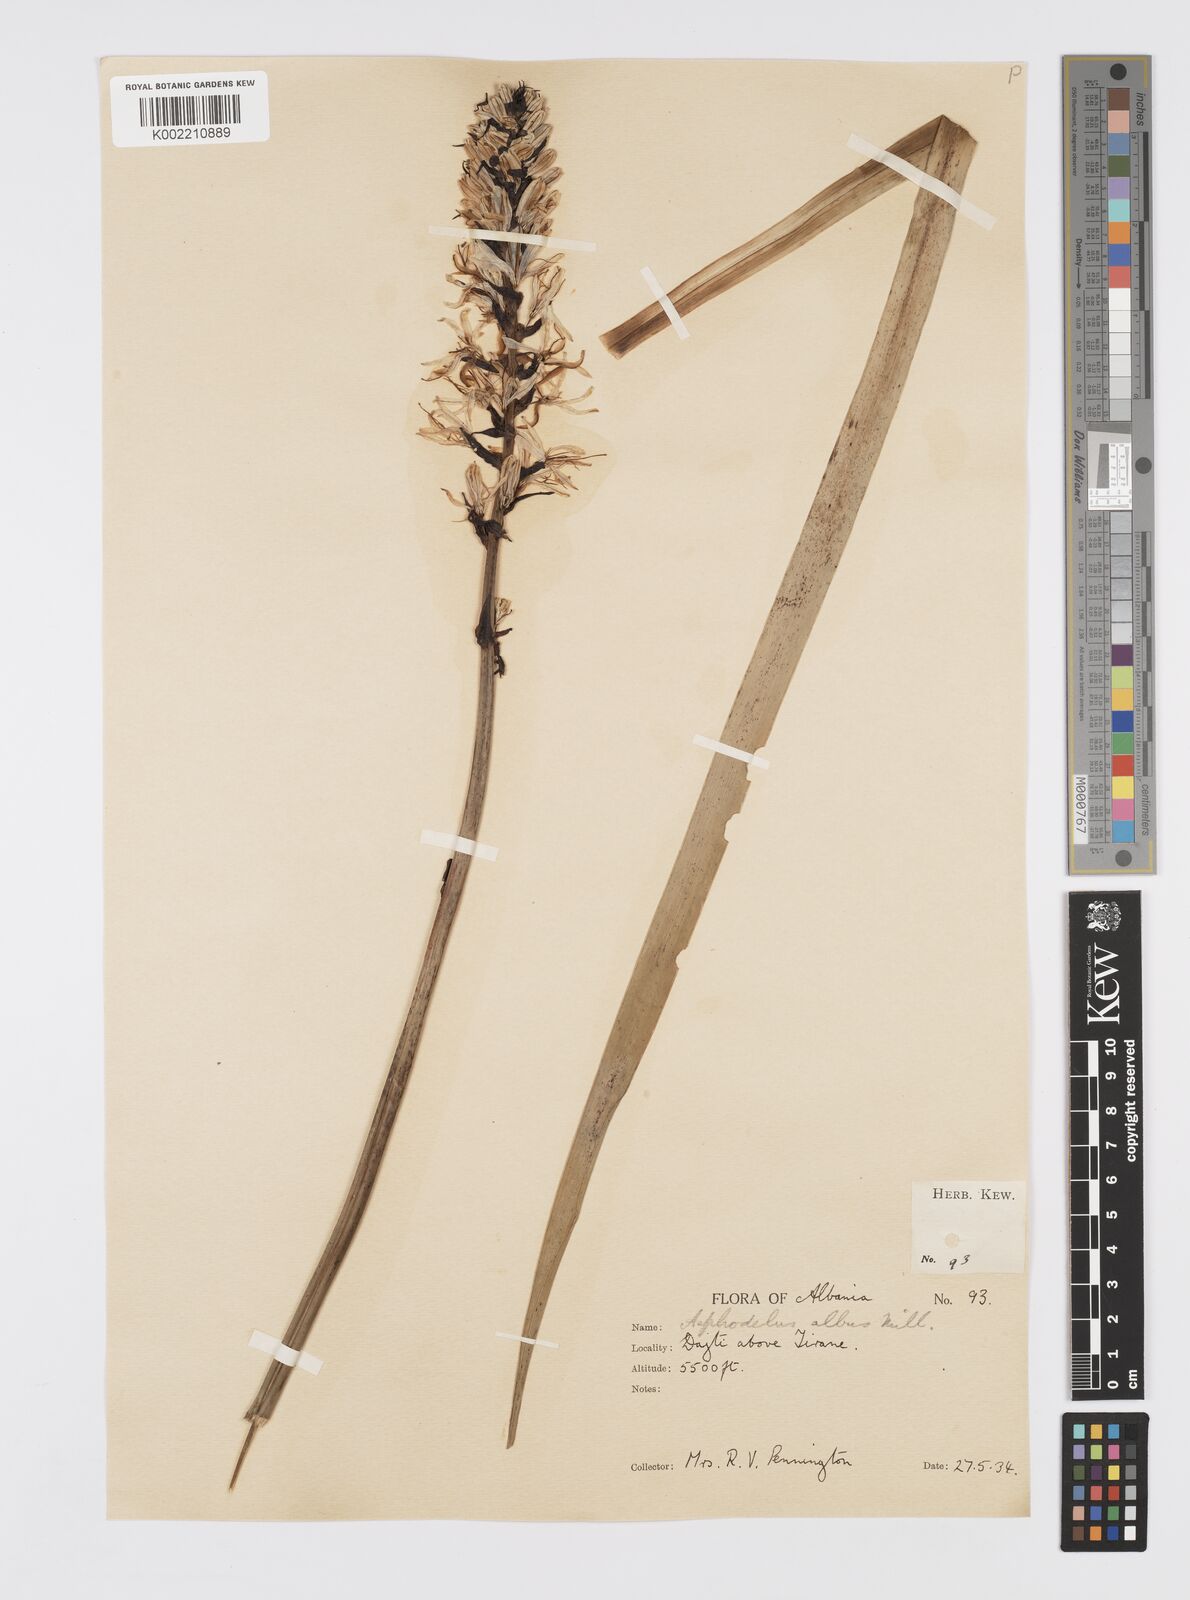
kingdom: Plantae
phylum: Tracheophyta
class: Liliopsida
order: Asparagales
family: Asphodelaceae
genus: Asphodelus
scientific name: Asphodelus albus
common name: White asphodel
